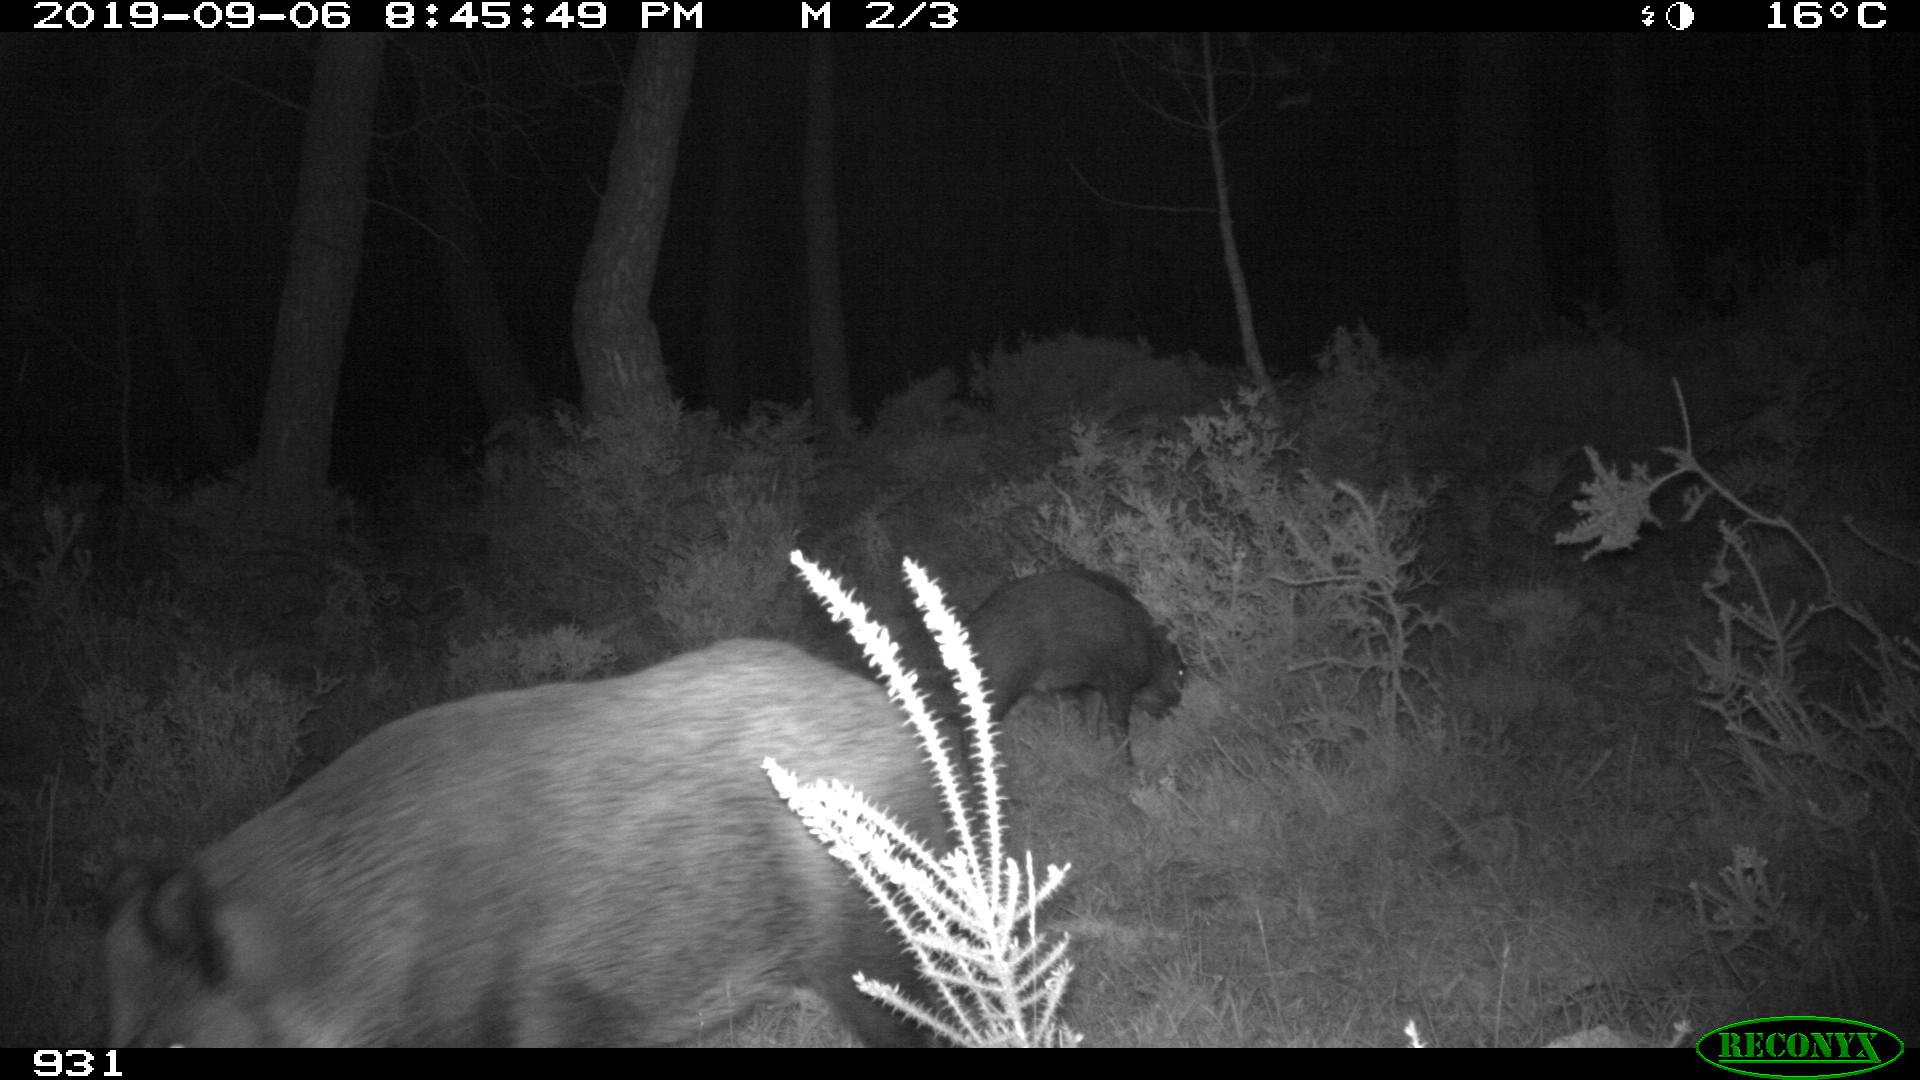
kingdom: Animalia
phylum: Chordata
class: Mammalia
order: Artiodactyla
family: Suidae
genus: Sus
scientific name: Sus scrofa
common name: Wild boar
